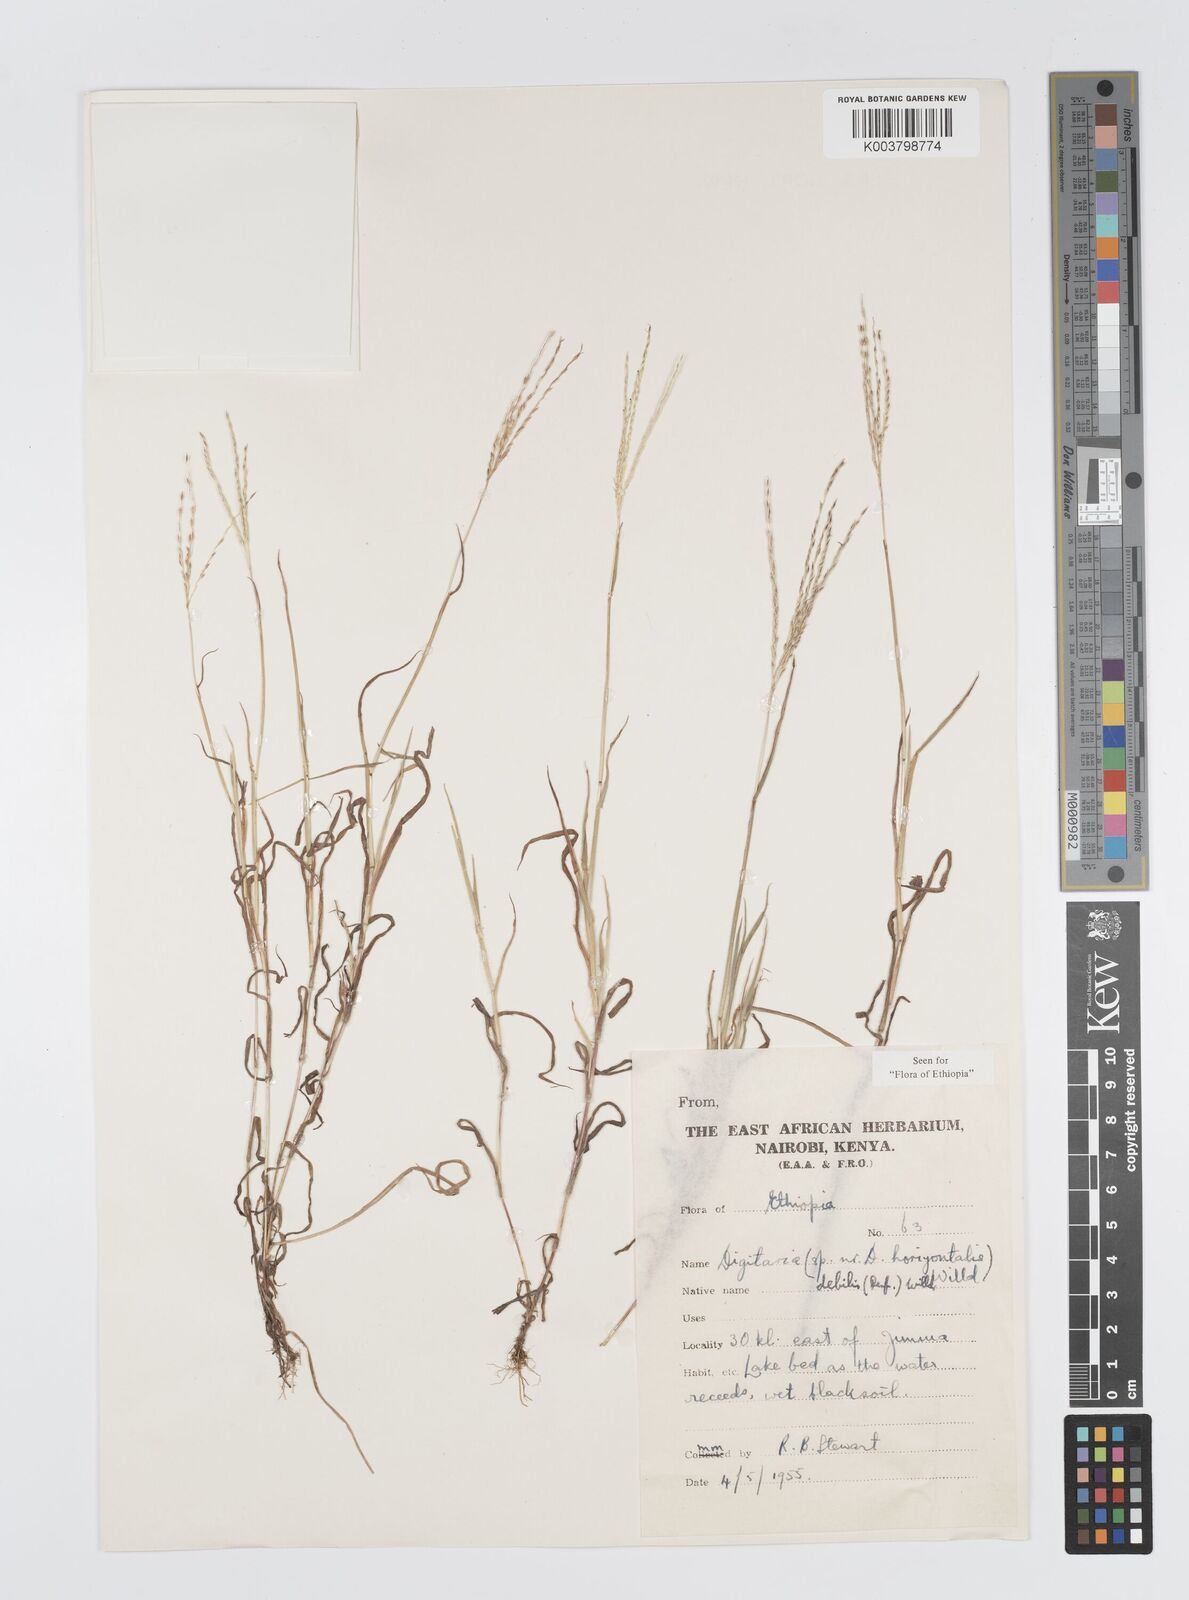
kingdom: Plantae
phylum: Tracheophyta
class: Liliopsida
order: Poales
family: Poaceae
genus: Digitaria
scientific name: Digitaria debilis
